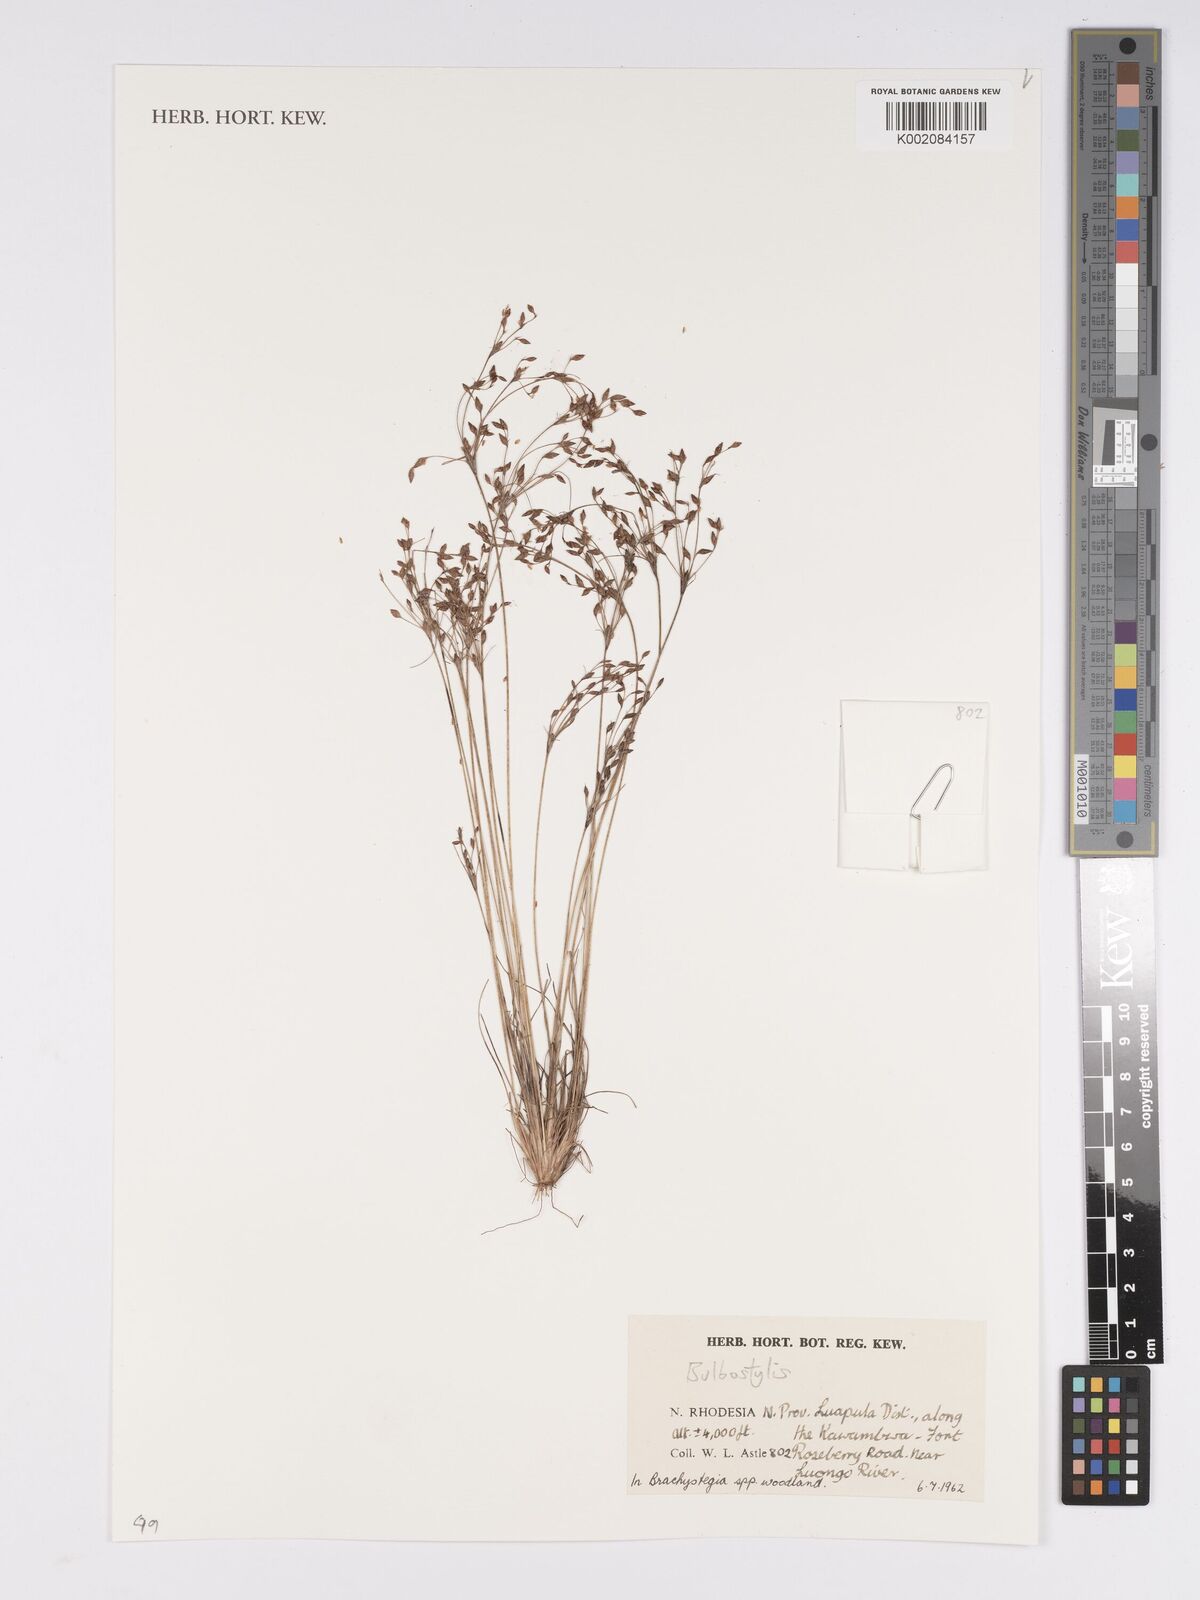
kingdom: Plantae
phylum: Tracheophyta
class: Liliopsida
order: Poales
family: Cyperaceae
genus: Bulbostylis
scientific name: Bulbostylis
